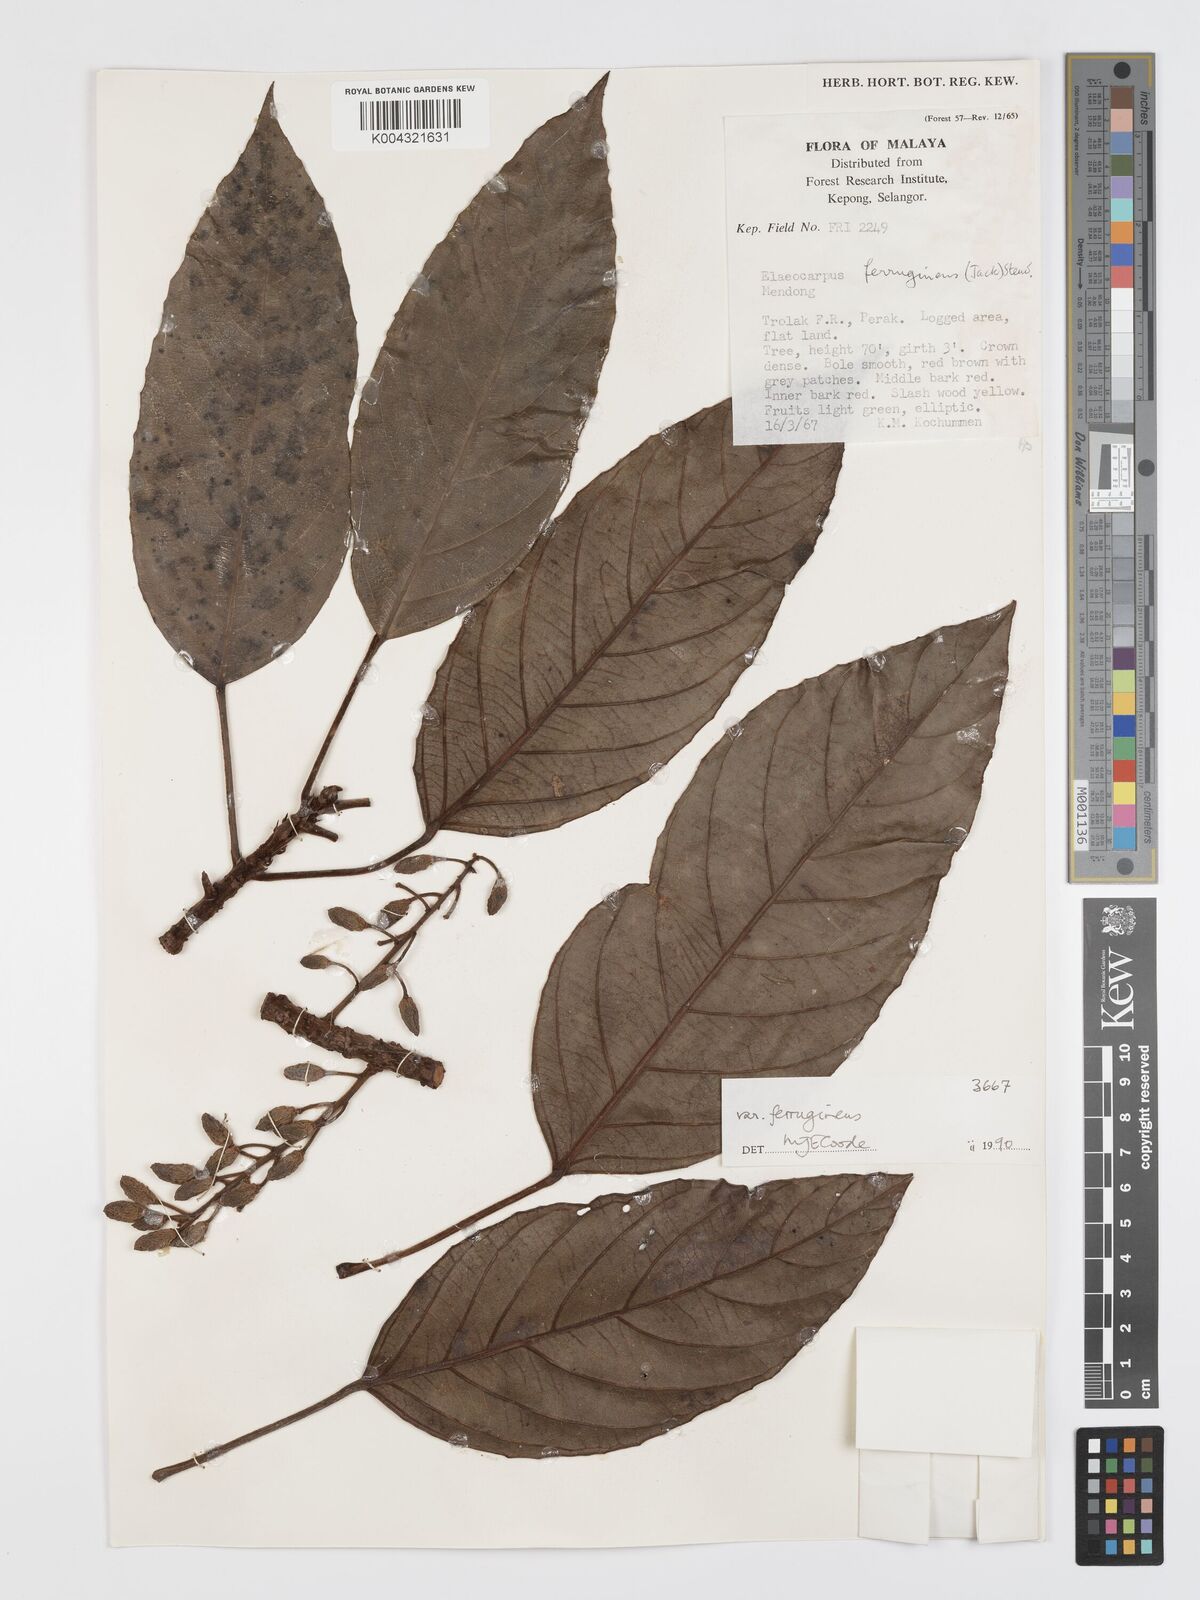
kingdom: Plantae
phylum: Tracheophyta
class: Magnoliopsida
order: Oxalidales
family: Elaeocarpaceae
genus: Elaeocarpus
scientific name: Elaeocarpus ferrugineus
